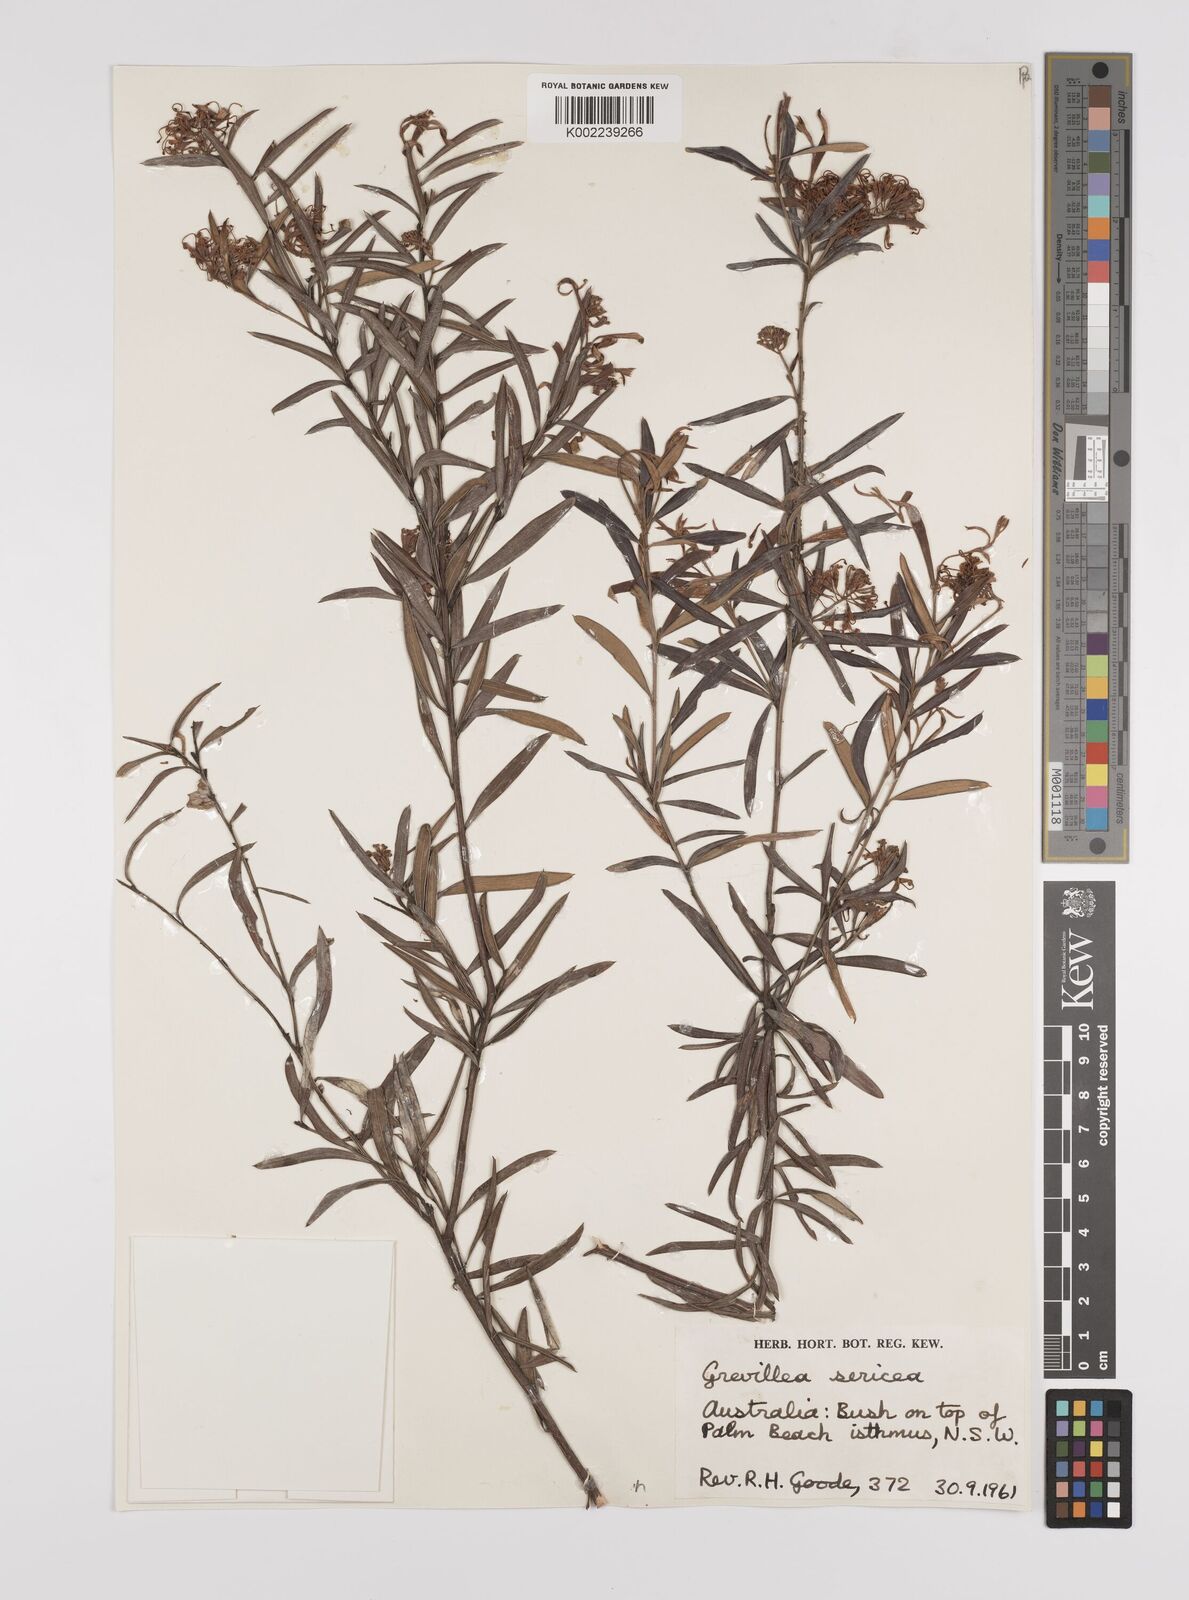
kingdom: Plantae
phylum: Tracheophyta
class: Magnoliopsida
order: Proteales
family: Proteaceae
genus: Grevillea
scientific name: Grevillea sericea
